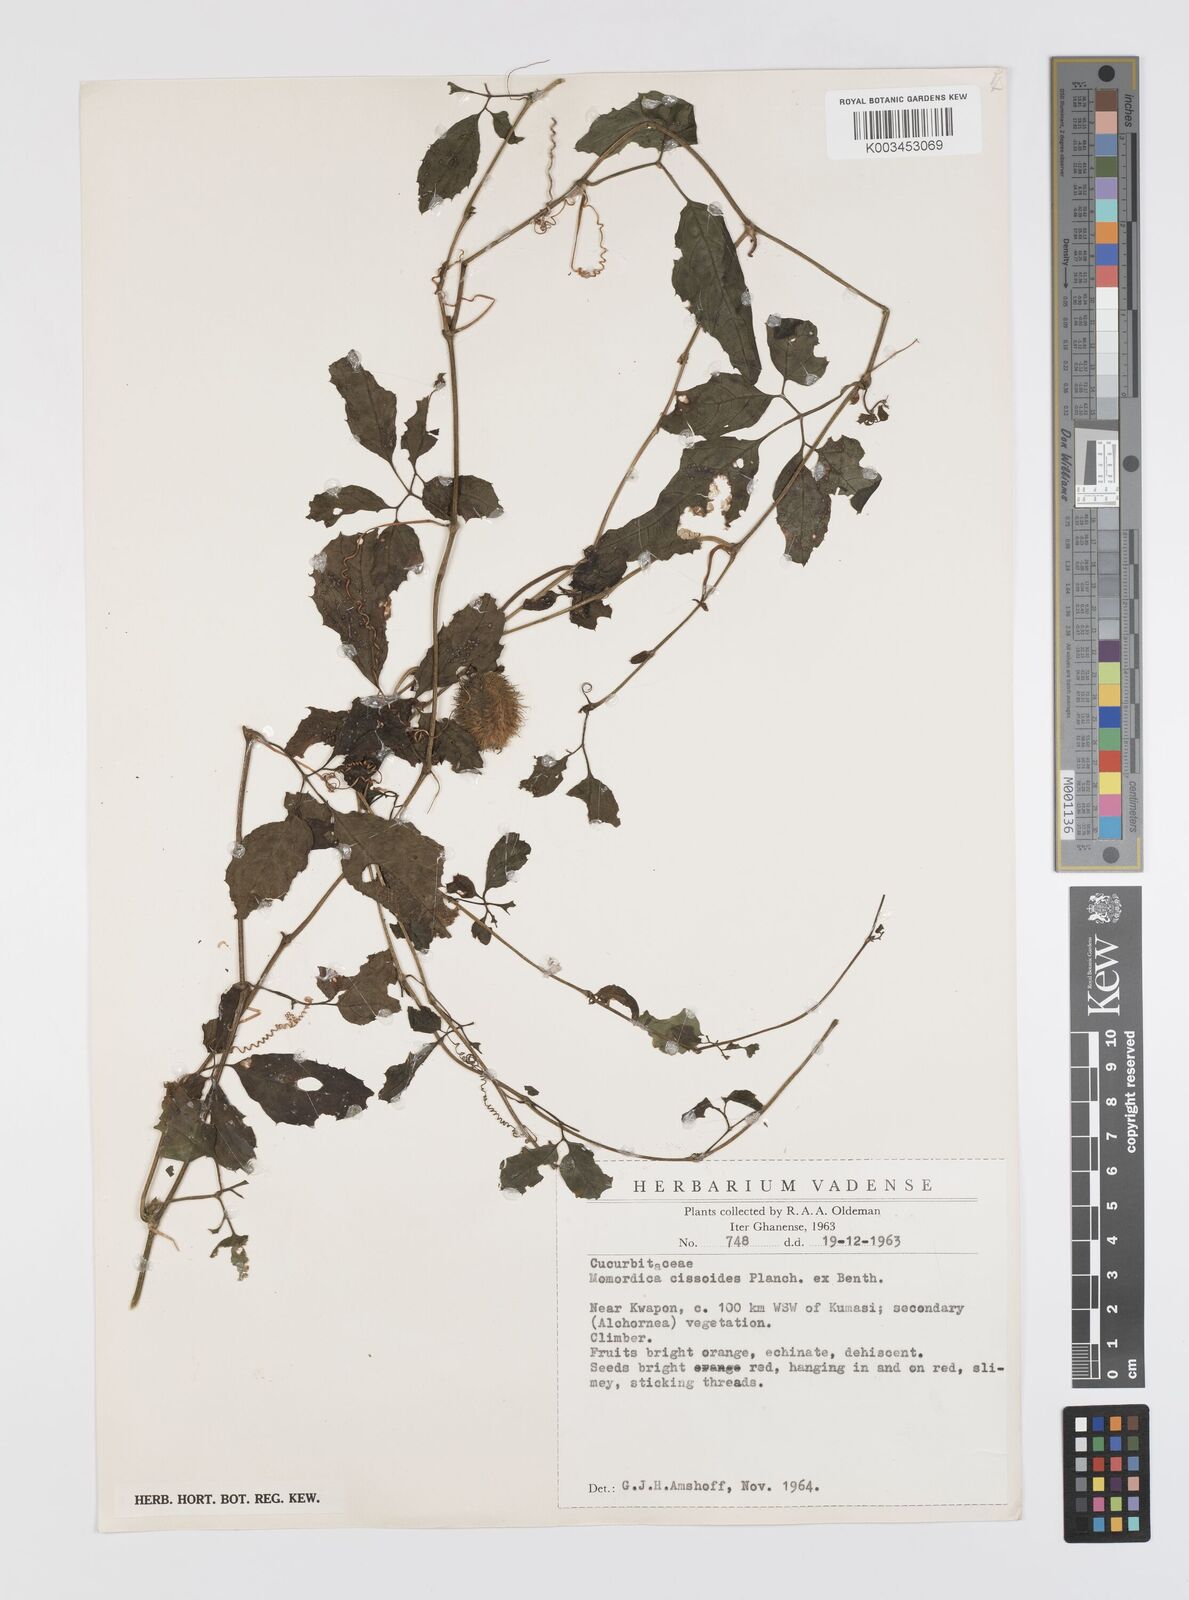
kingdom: Plantae
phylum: Tracheophyta
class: Magnoliopsida
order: Cucurbitales
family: Cucurbitaceae
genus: Momordica
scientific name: Momordica cissoides
